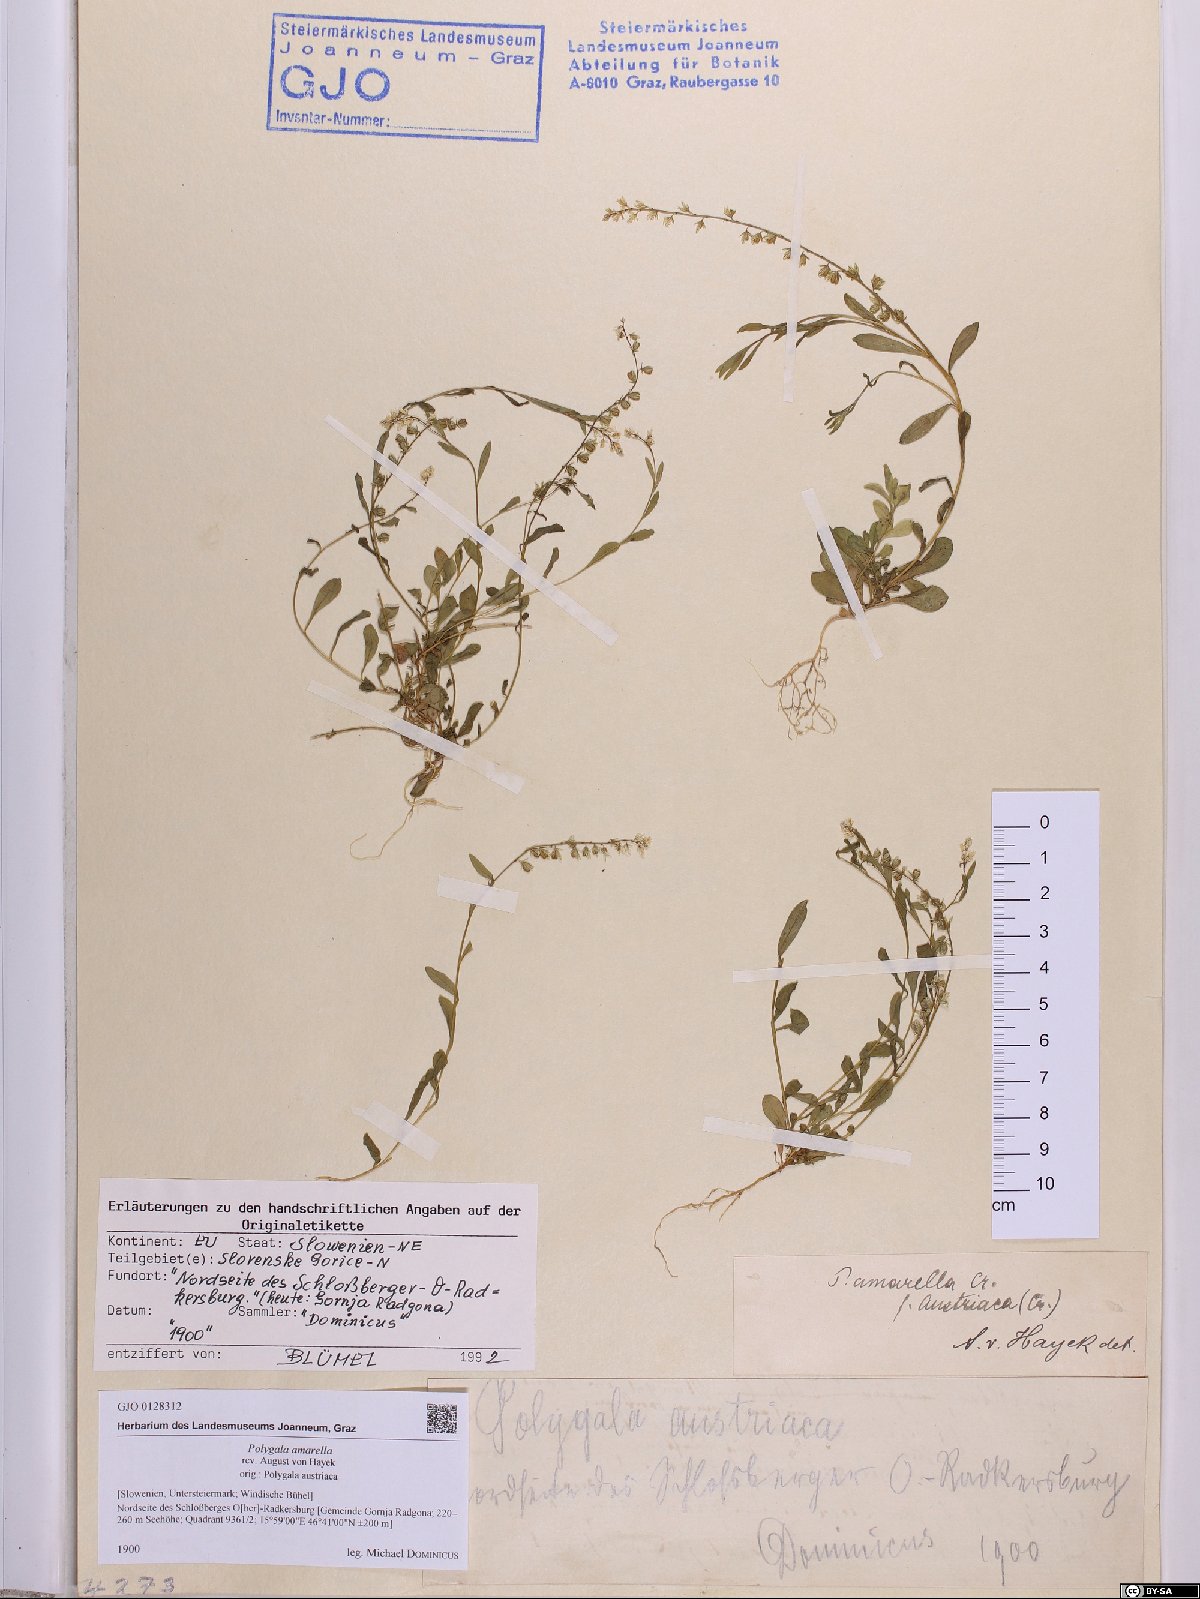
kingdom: Plantae
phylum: Tracheophyta
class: Magnoliopsida
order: Fabales
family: Polygalaceae
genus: Polygala
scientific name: Polygala amarella
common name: Dwarf milkwort
